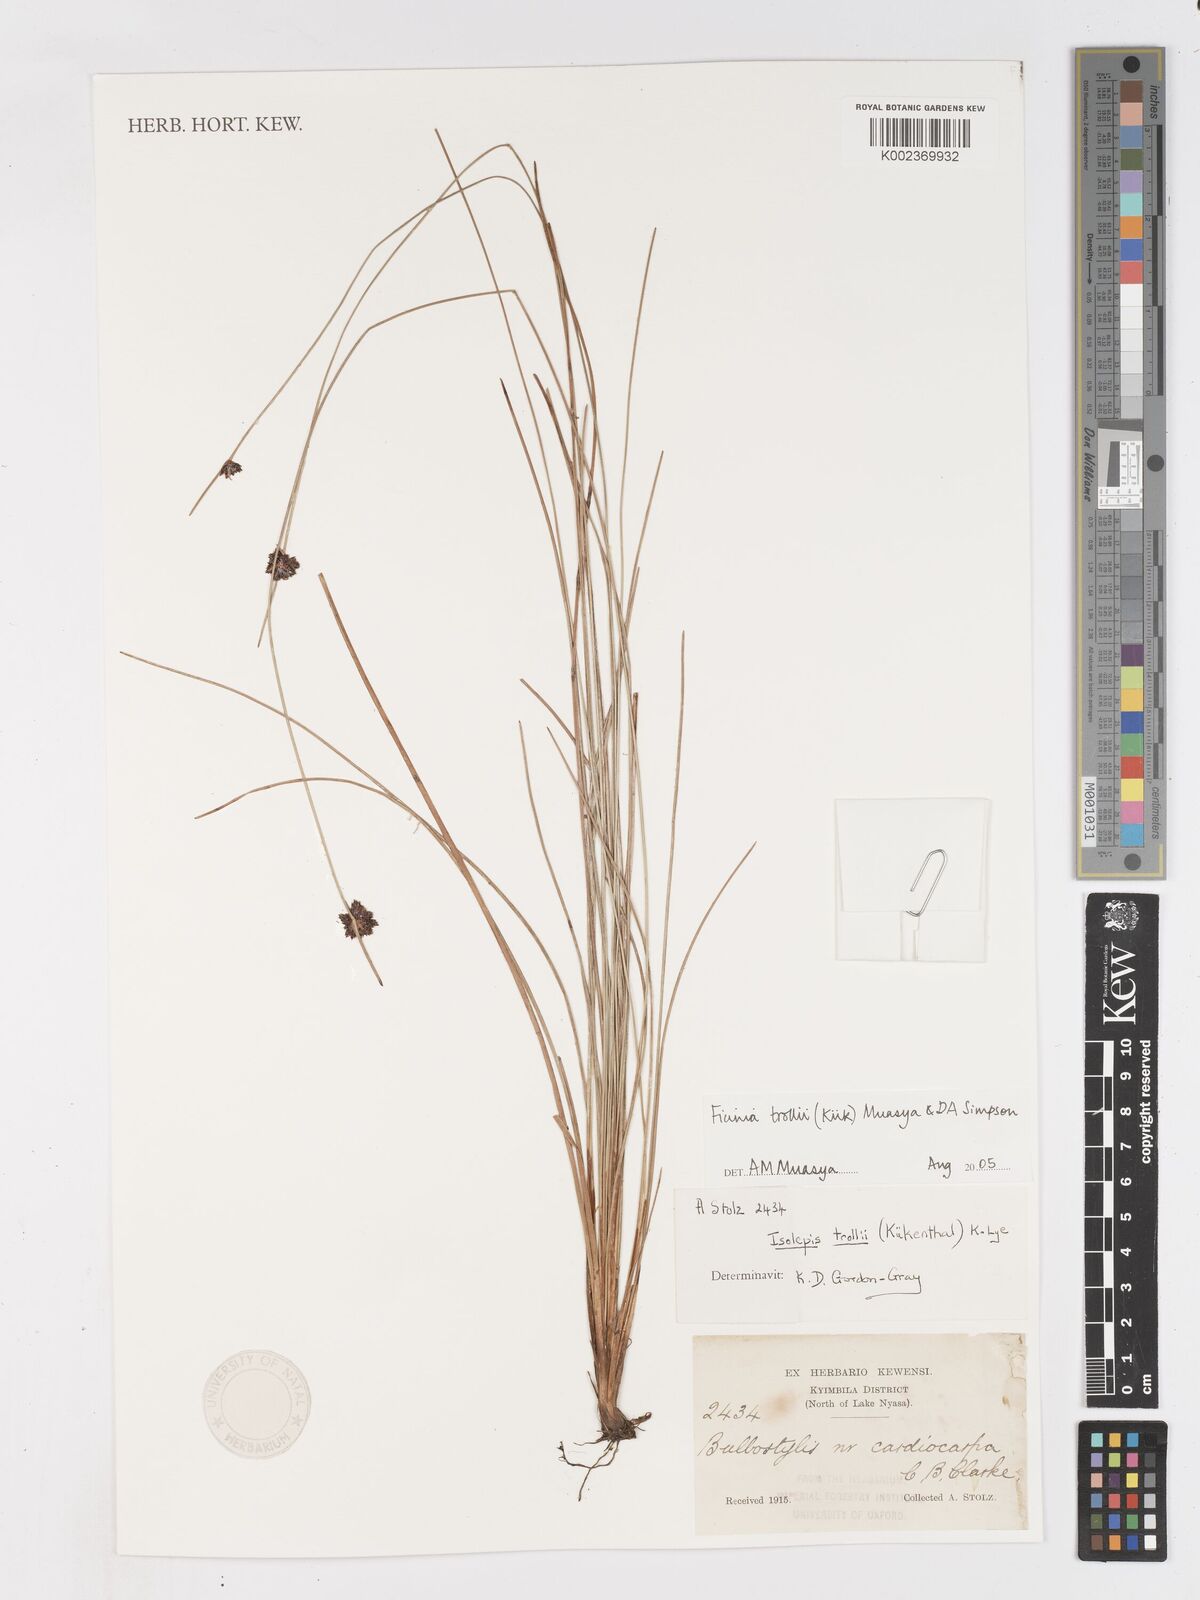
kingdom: Plantae
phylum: Tracheophyta
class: Liliopsida
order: Poales
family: Cyperaceae
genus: Ficinia
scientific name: Ficinia trollii
